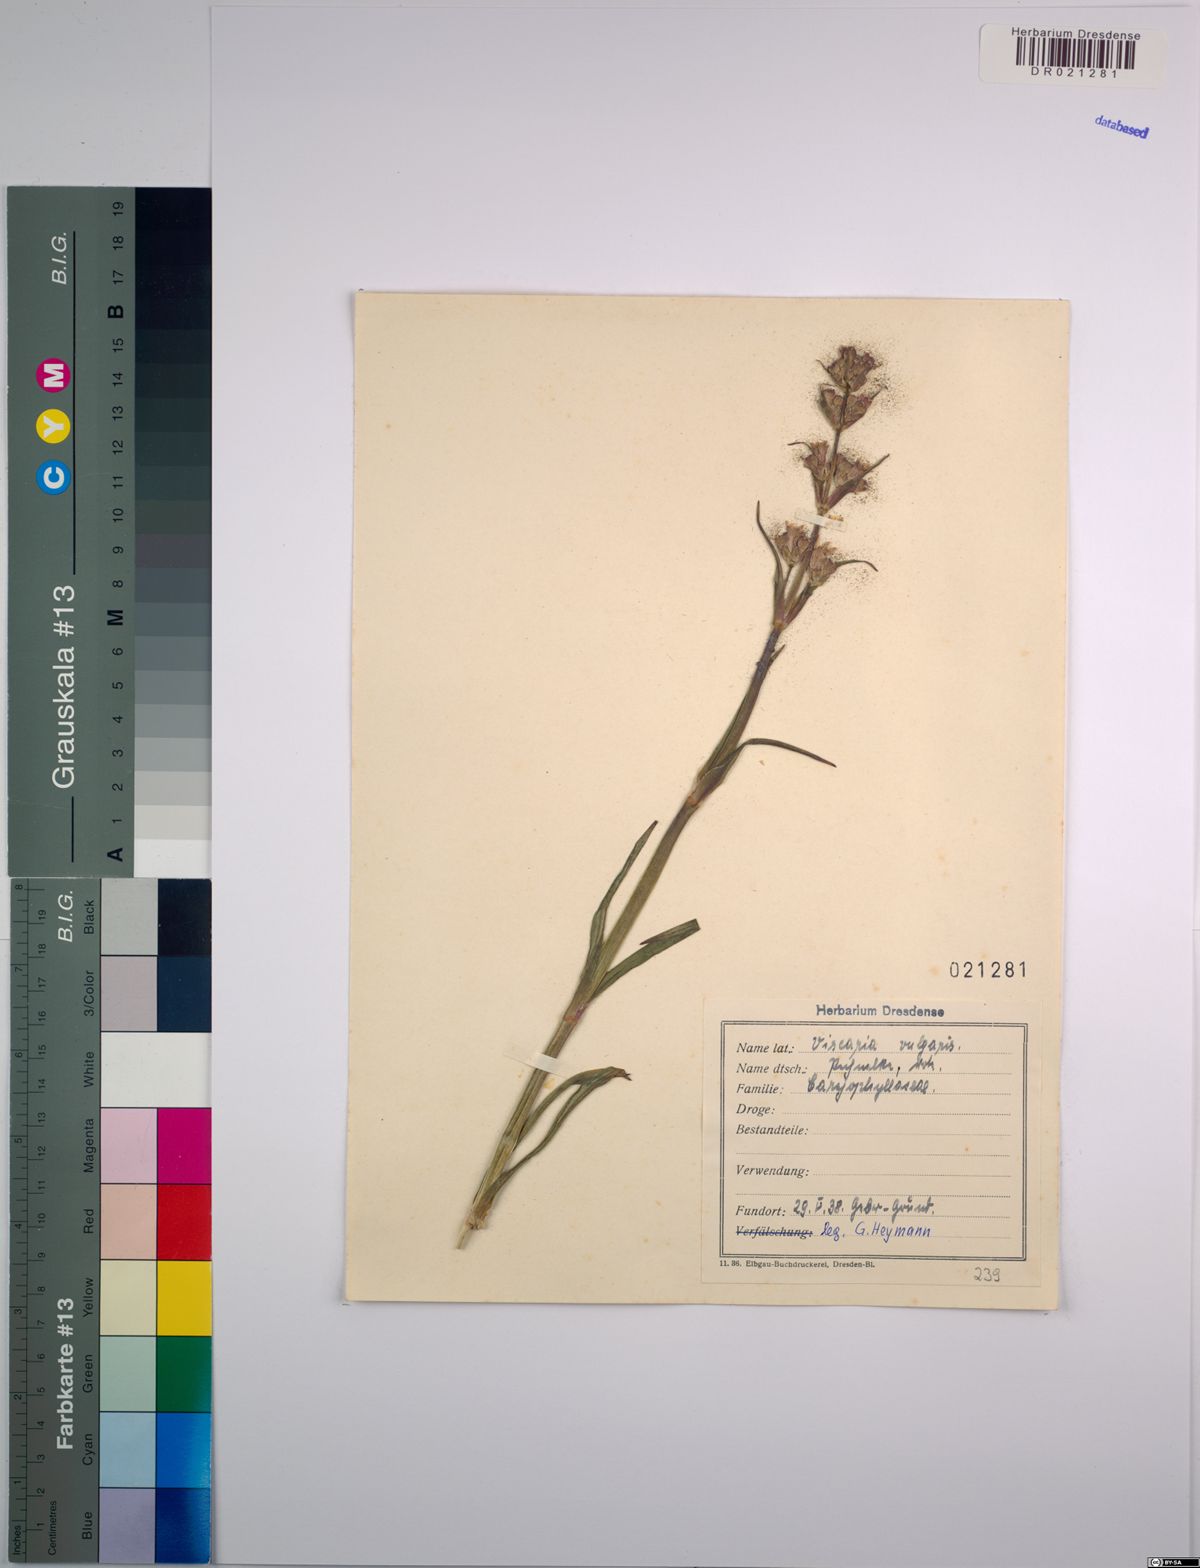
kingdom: Plantae
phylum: Tracheophyta
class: Magnoliopsida
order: Caryophyllales
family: Caryophyllaceae
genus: Viscaria
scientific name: Viscaria vulgaris
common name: Clammy campion
